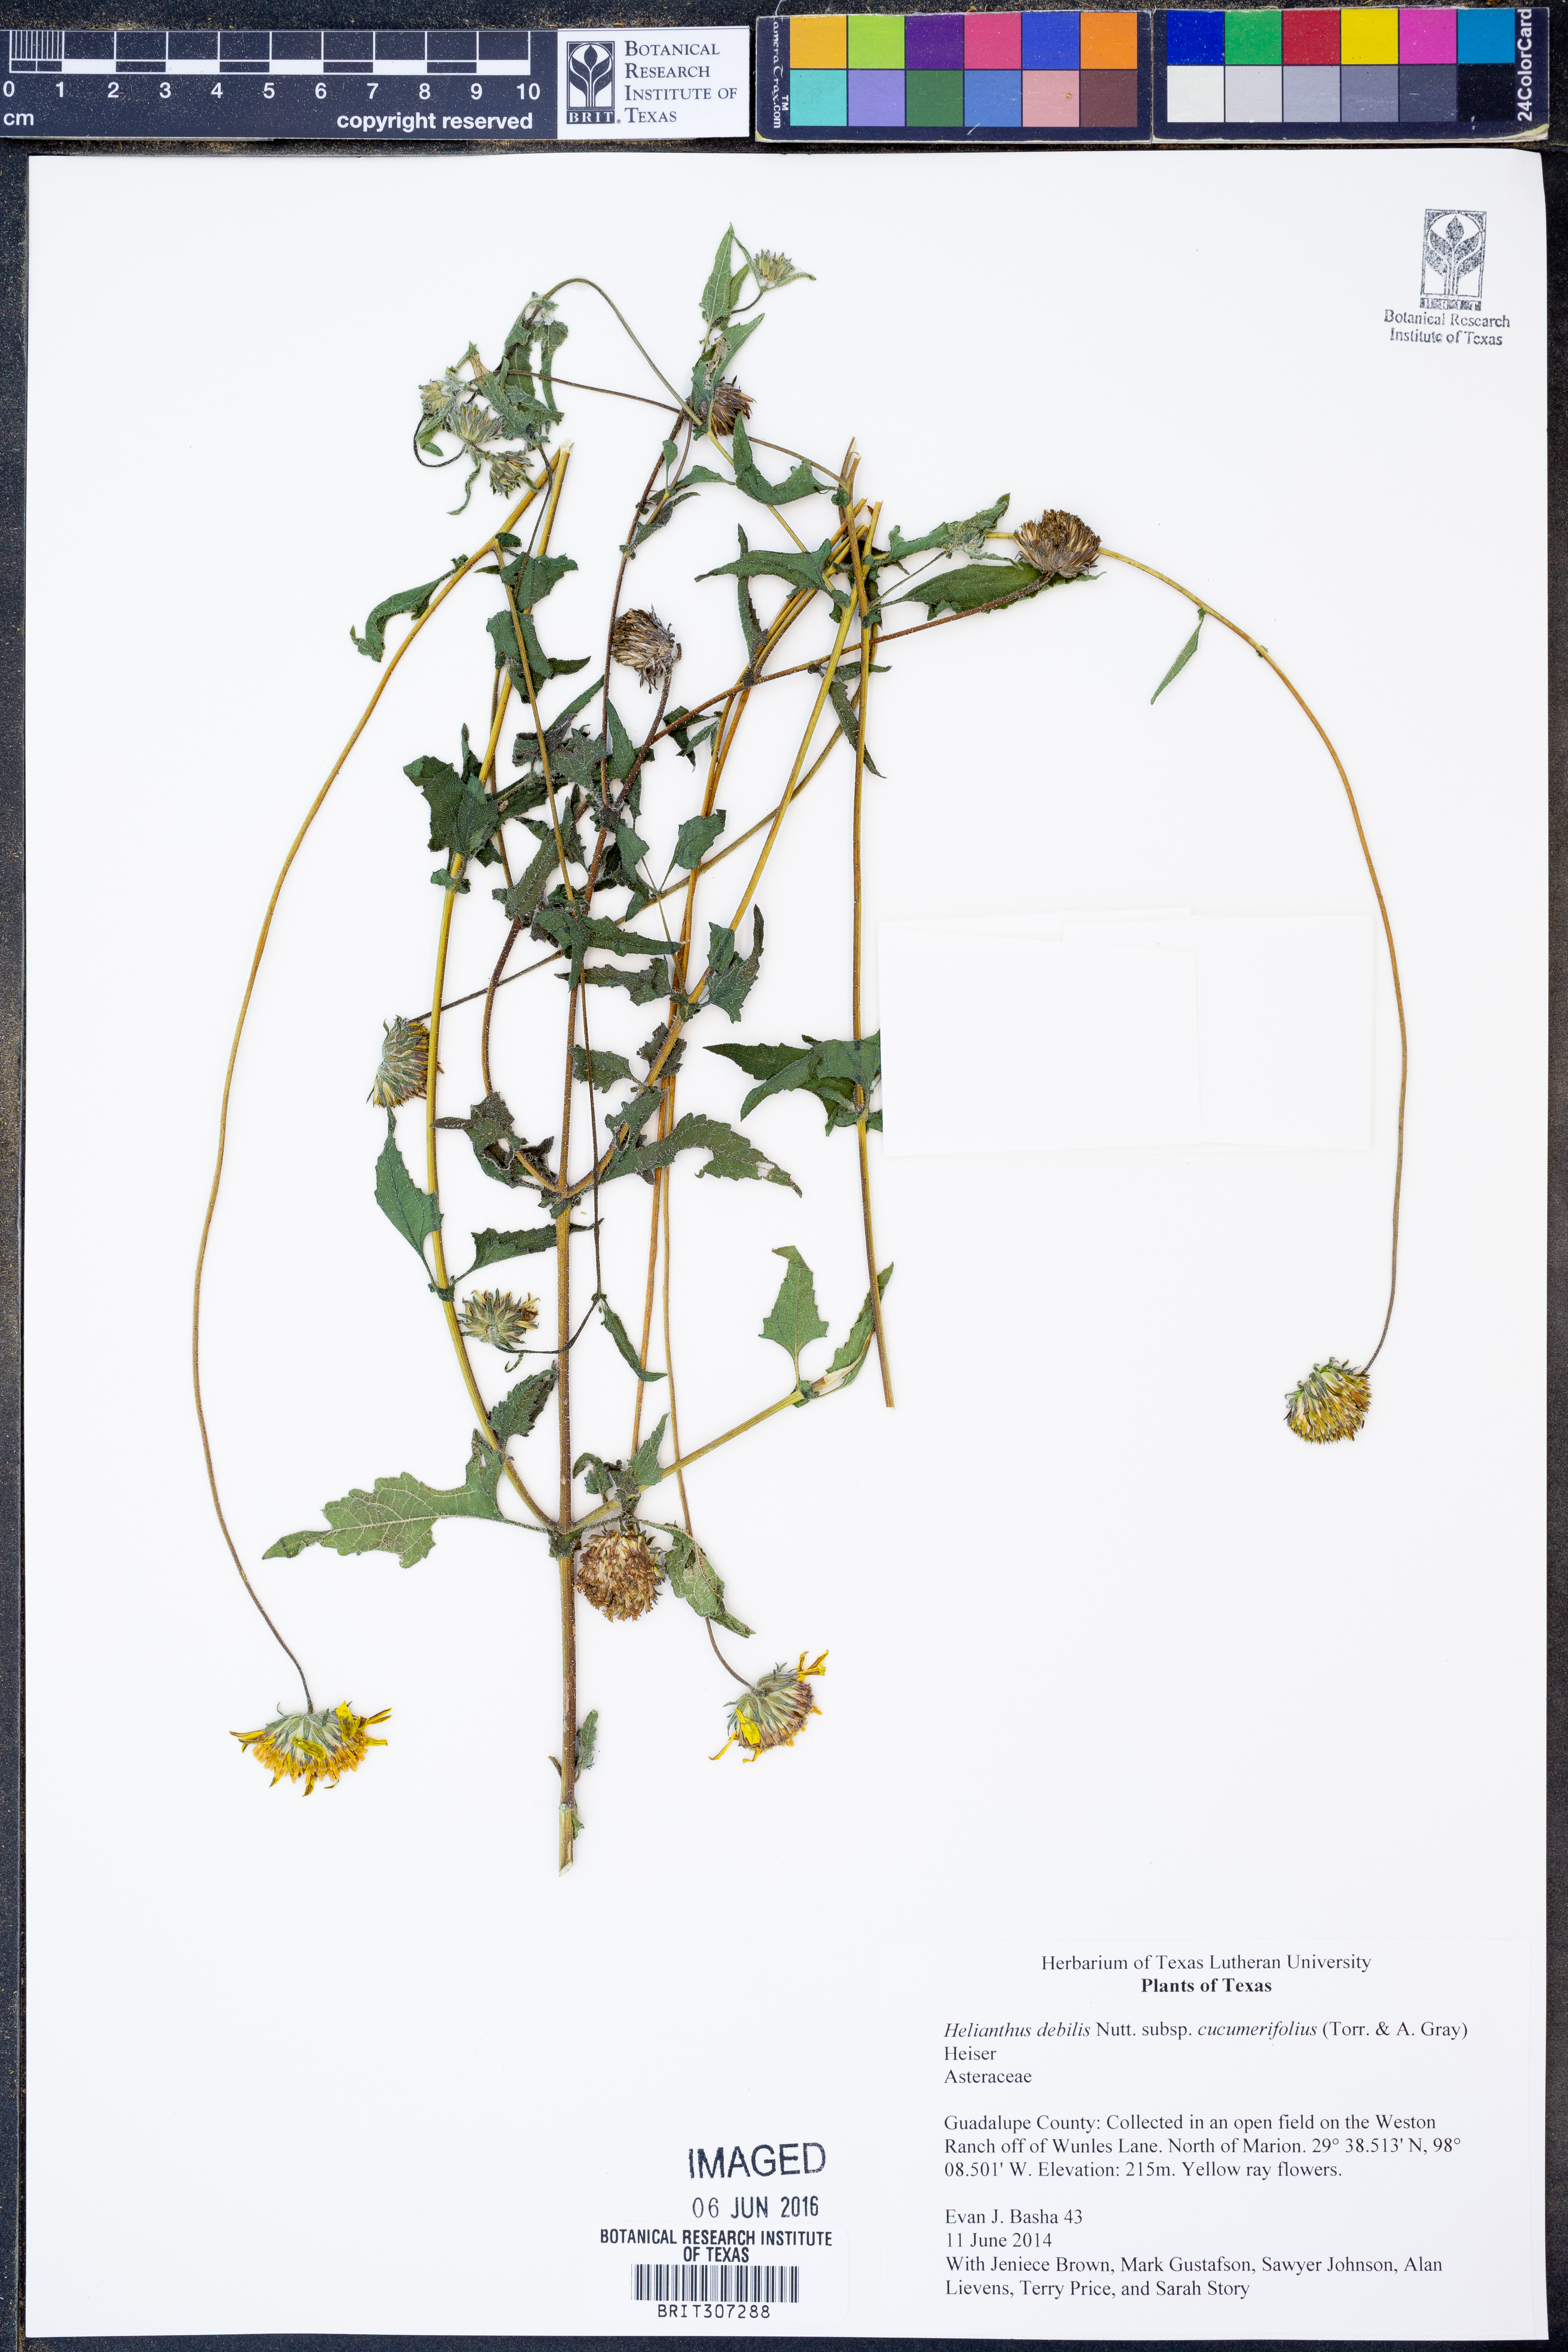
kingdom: Plantae
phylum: Tracheophyta
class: Magnoliopsida
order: Asterales
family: Asteraceae
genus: Helianthus
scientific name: Helianthus debilis
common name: Weak sunflower
